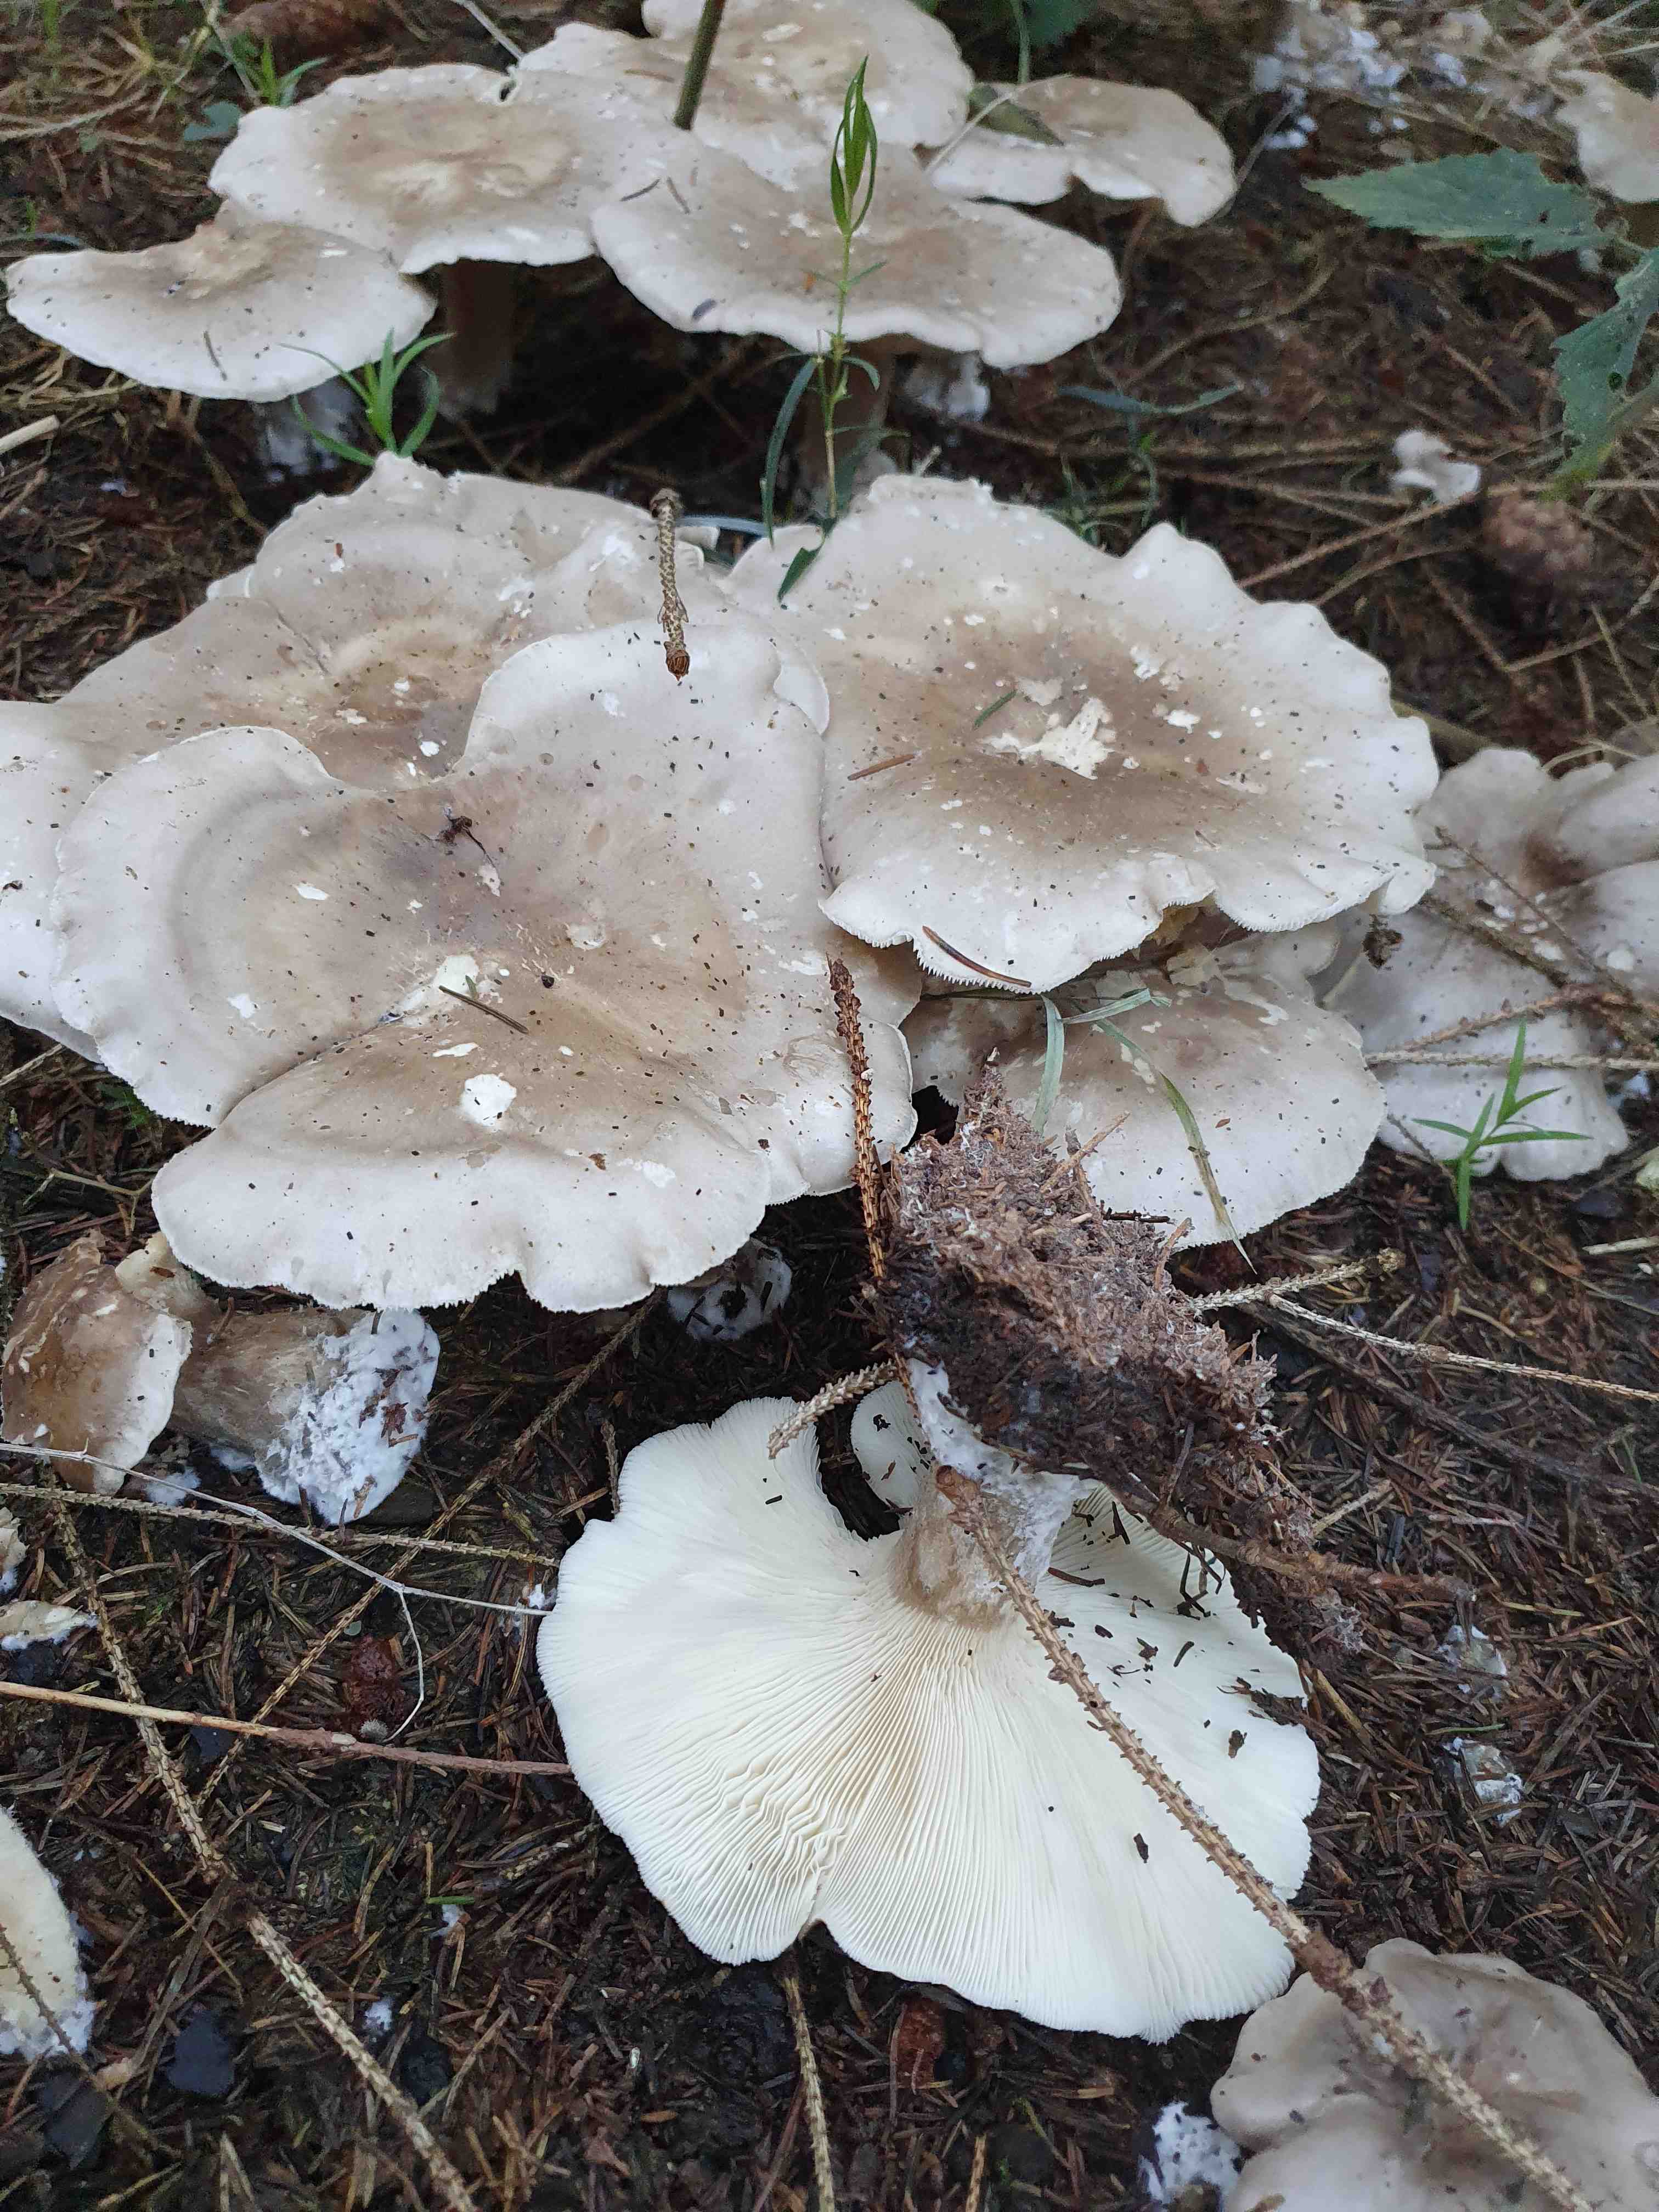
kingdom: Fungi
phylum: Basidiomycota
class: Agaricomycetes
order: Agaricales
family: Tricholomataceae
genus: Clitocybe
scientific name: Clitocybe nebularis
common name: tåge-tragthat
